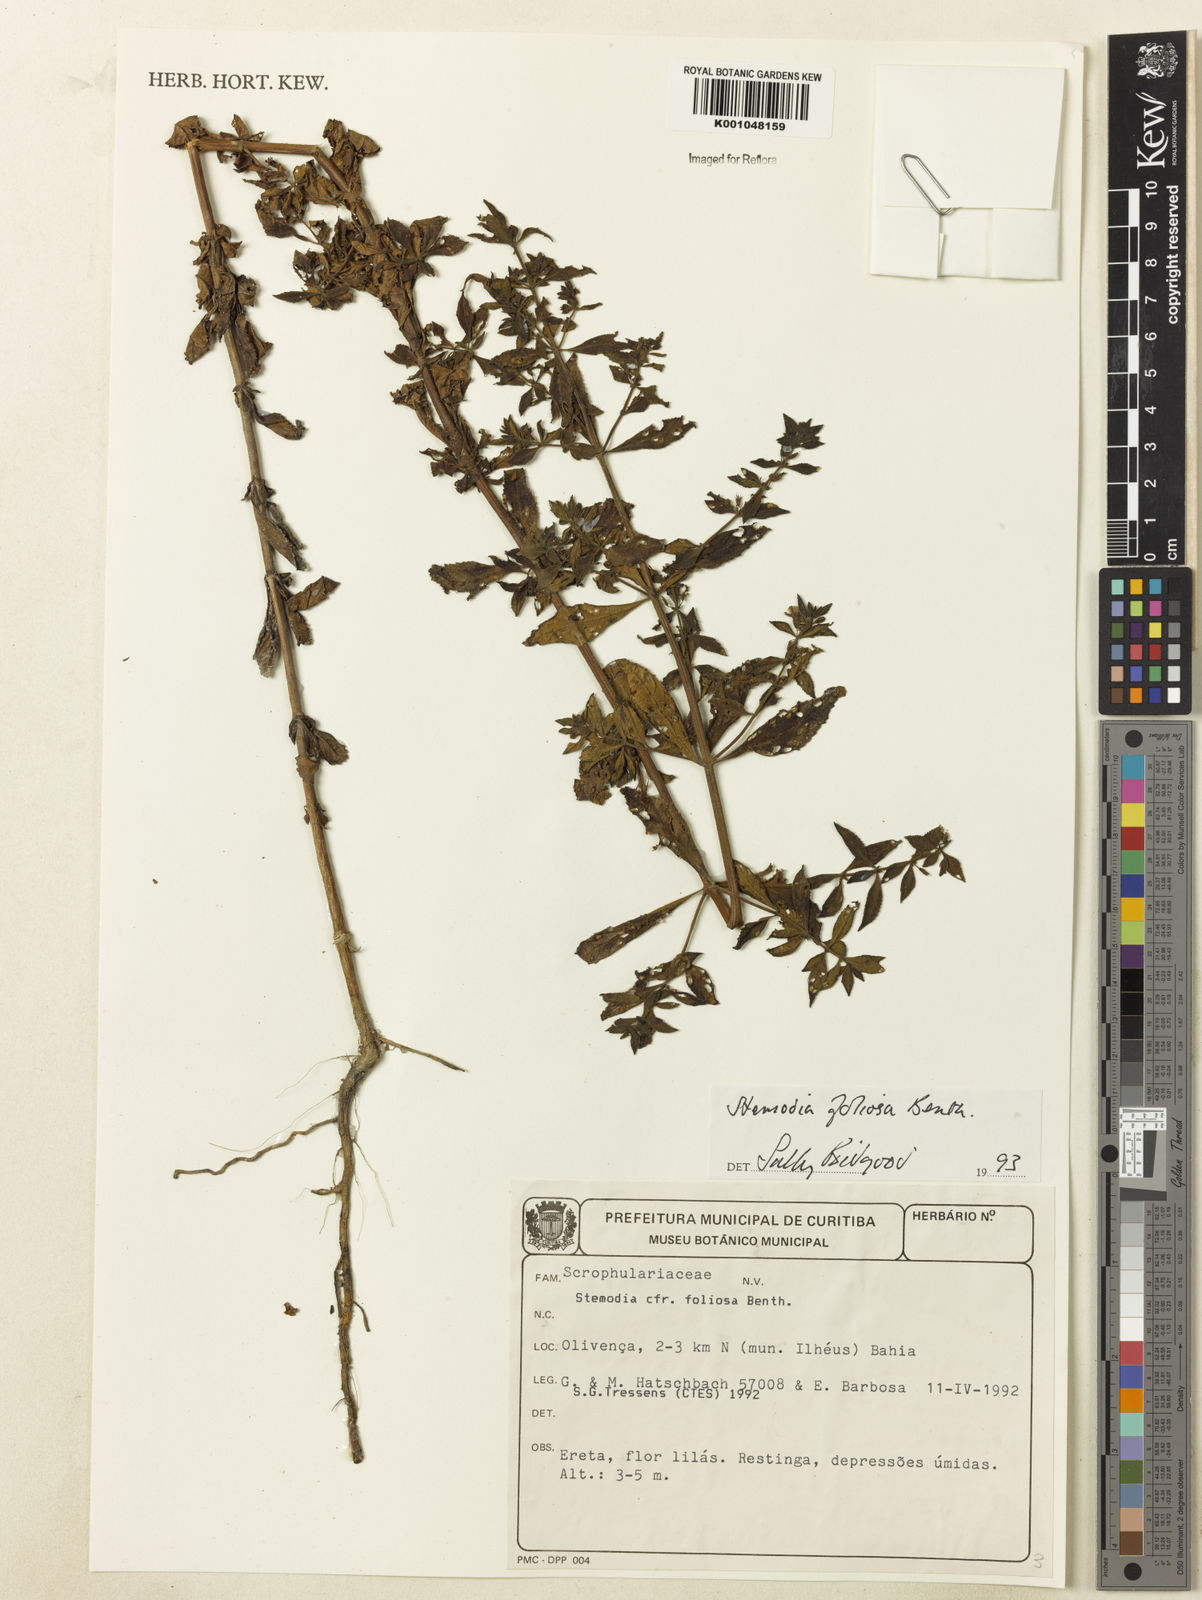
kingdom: Plantae
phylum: Tracheophyta
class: Magnoliopsida
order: Lamiales
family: Plantaginaceae
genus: Stemodia
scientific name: Stemodia foliosa
